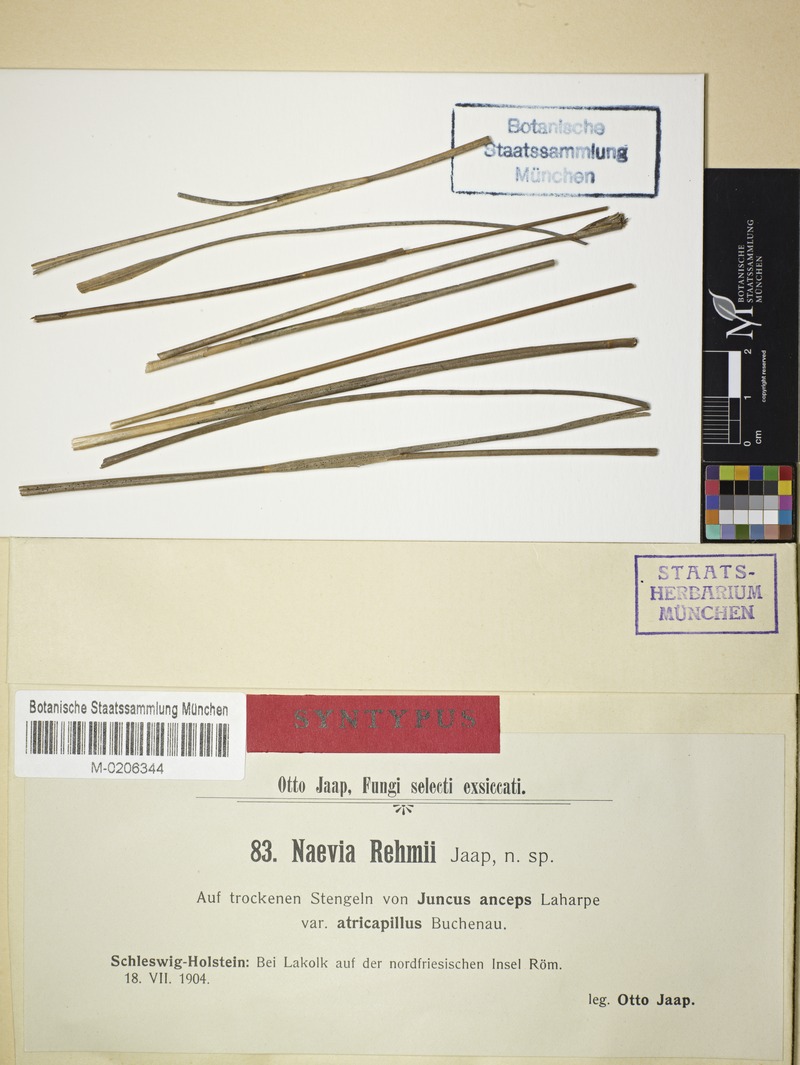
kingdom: Fungi
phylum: Ascomycota
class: Leotiomycetes
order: Helotiales
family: Calloriaceae
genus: Diplonaevia
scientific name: Diplonaevia exigua
